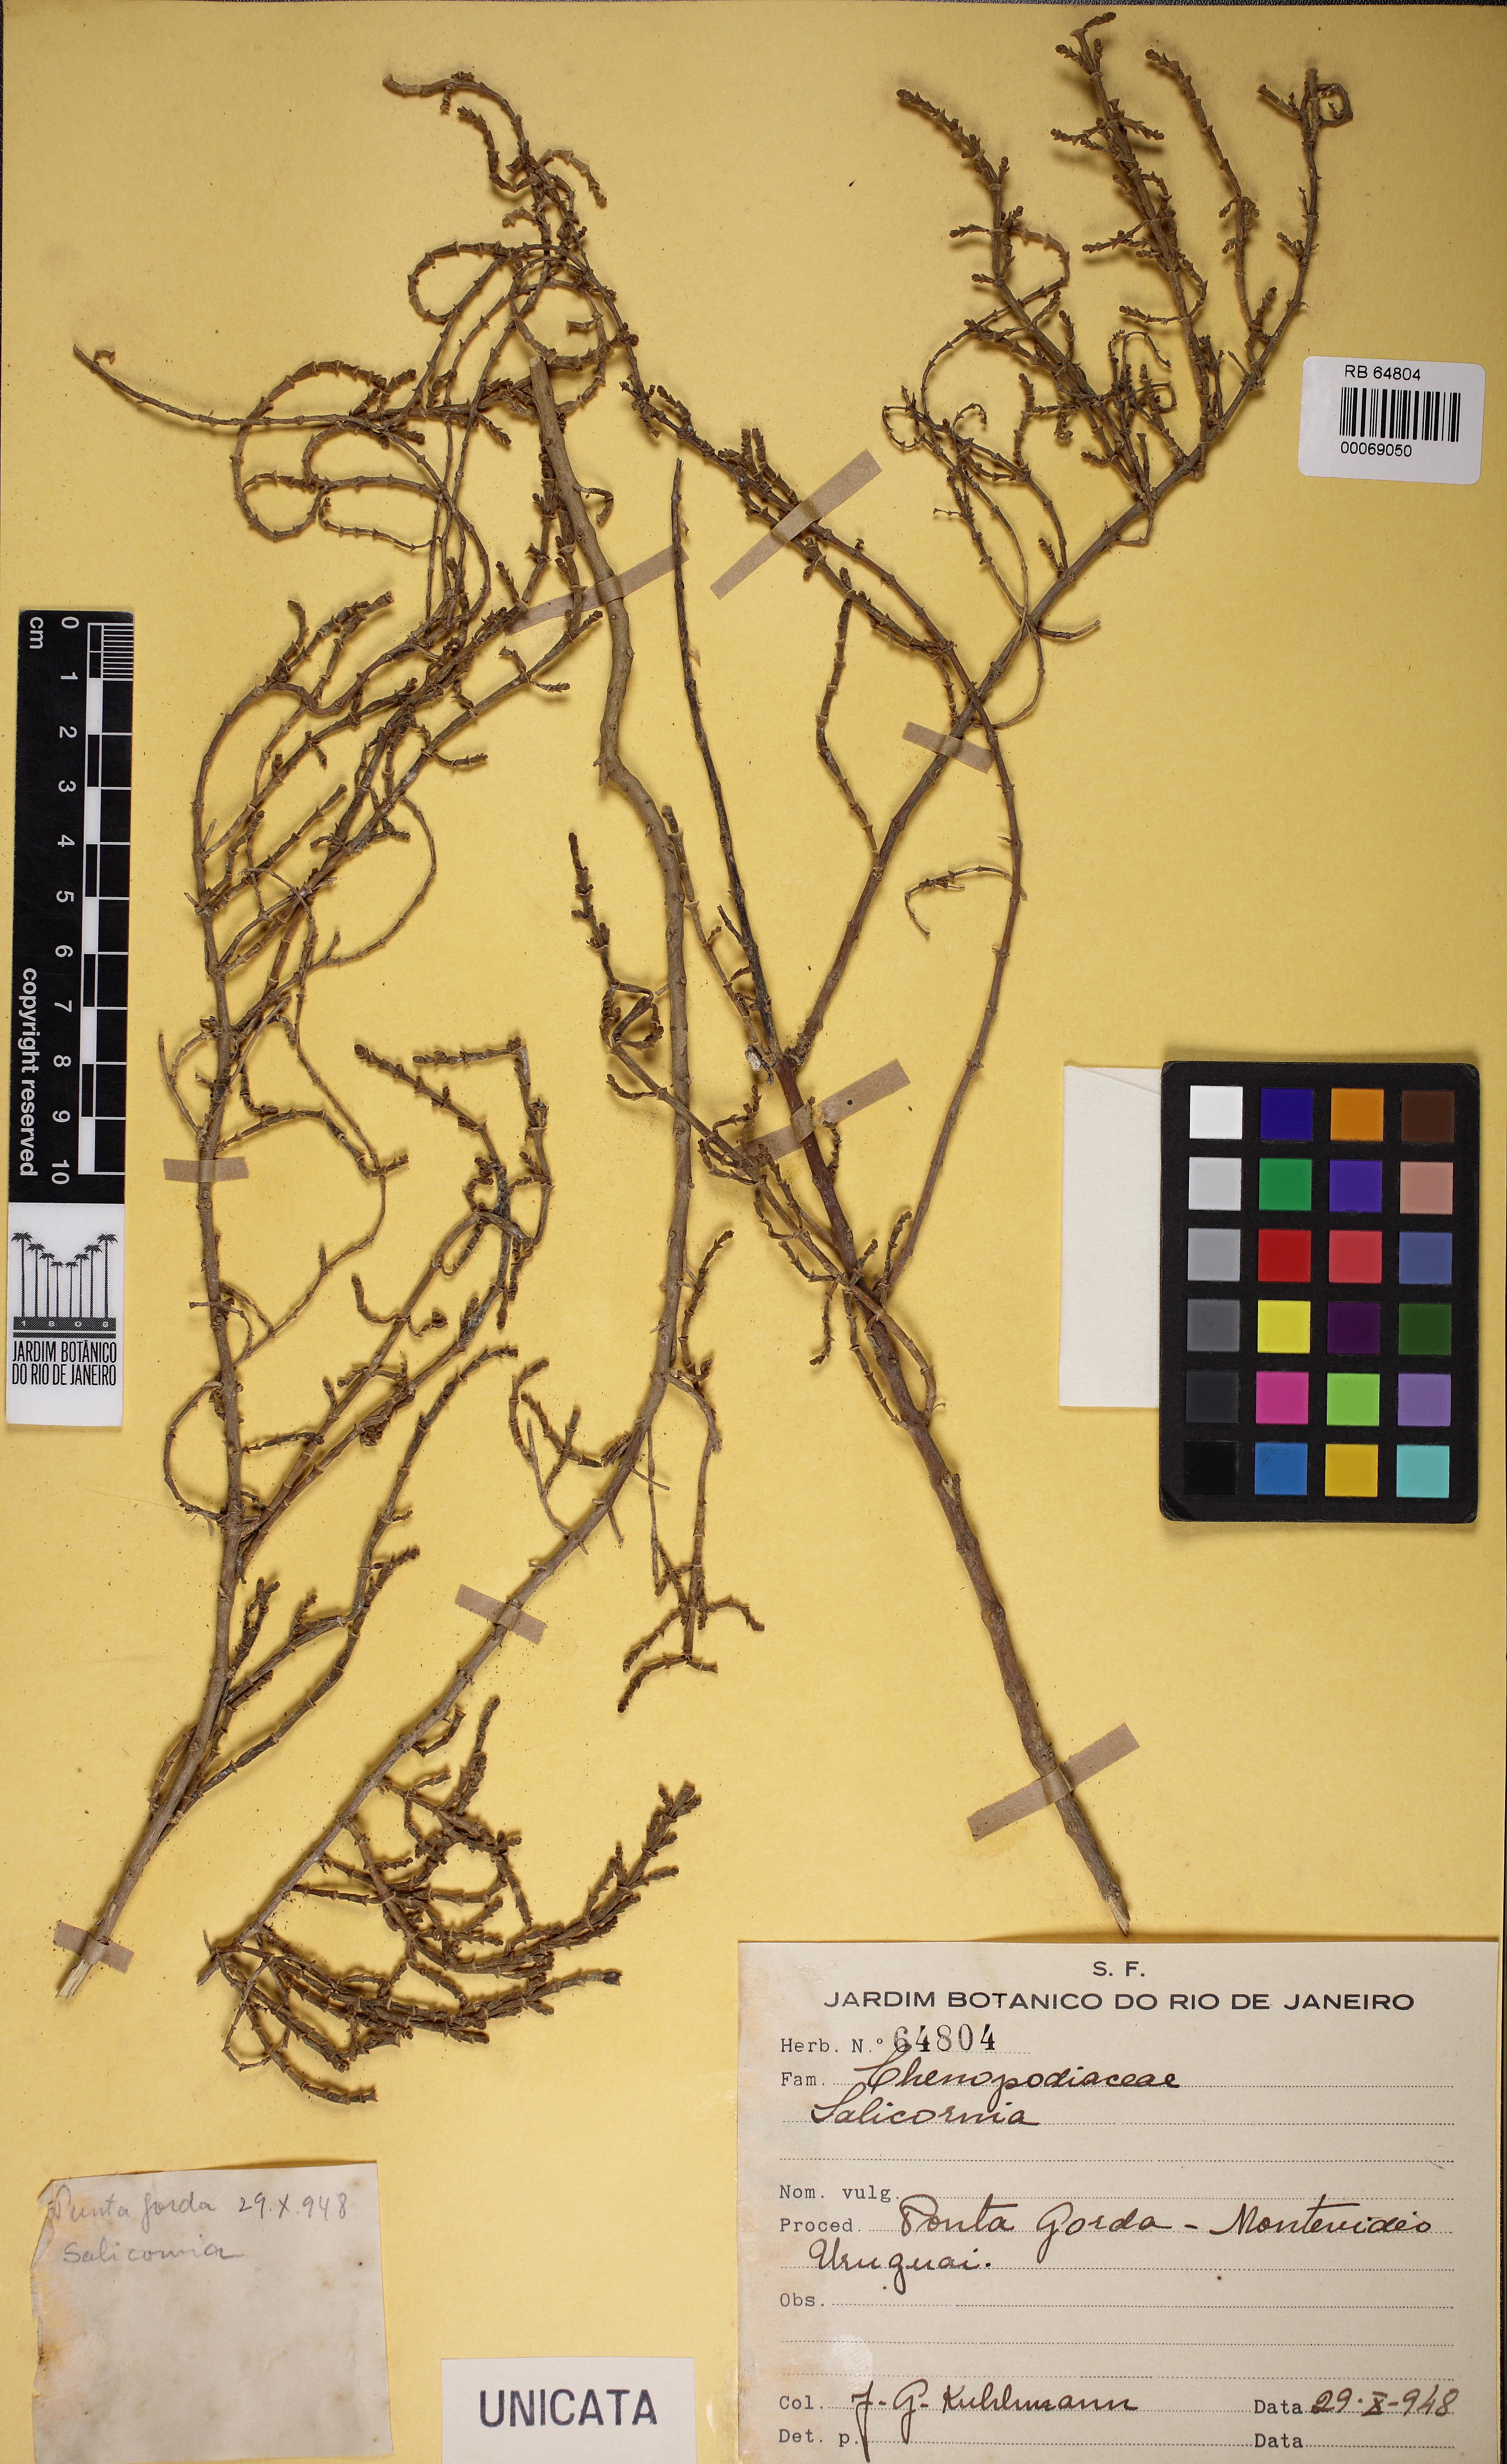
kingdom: Plantae
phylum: Tracheophyta
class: Magnoliopsida
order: Caryophyllales
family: Amaranthaceae
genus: Salicornia
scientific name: Salicornia
